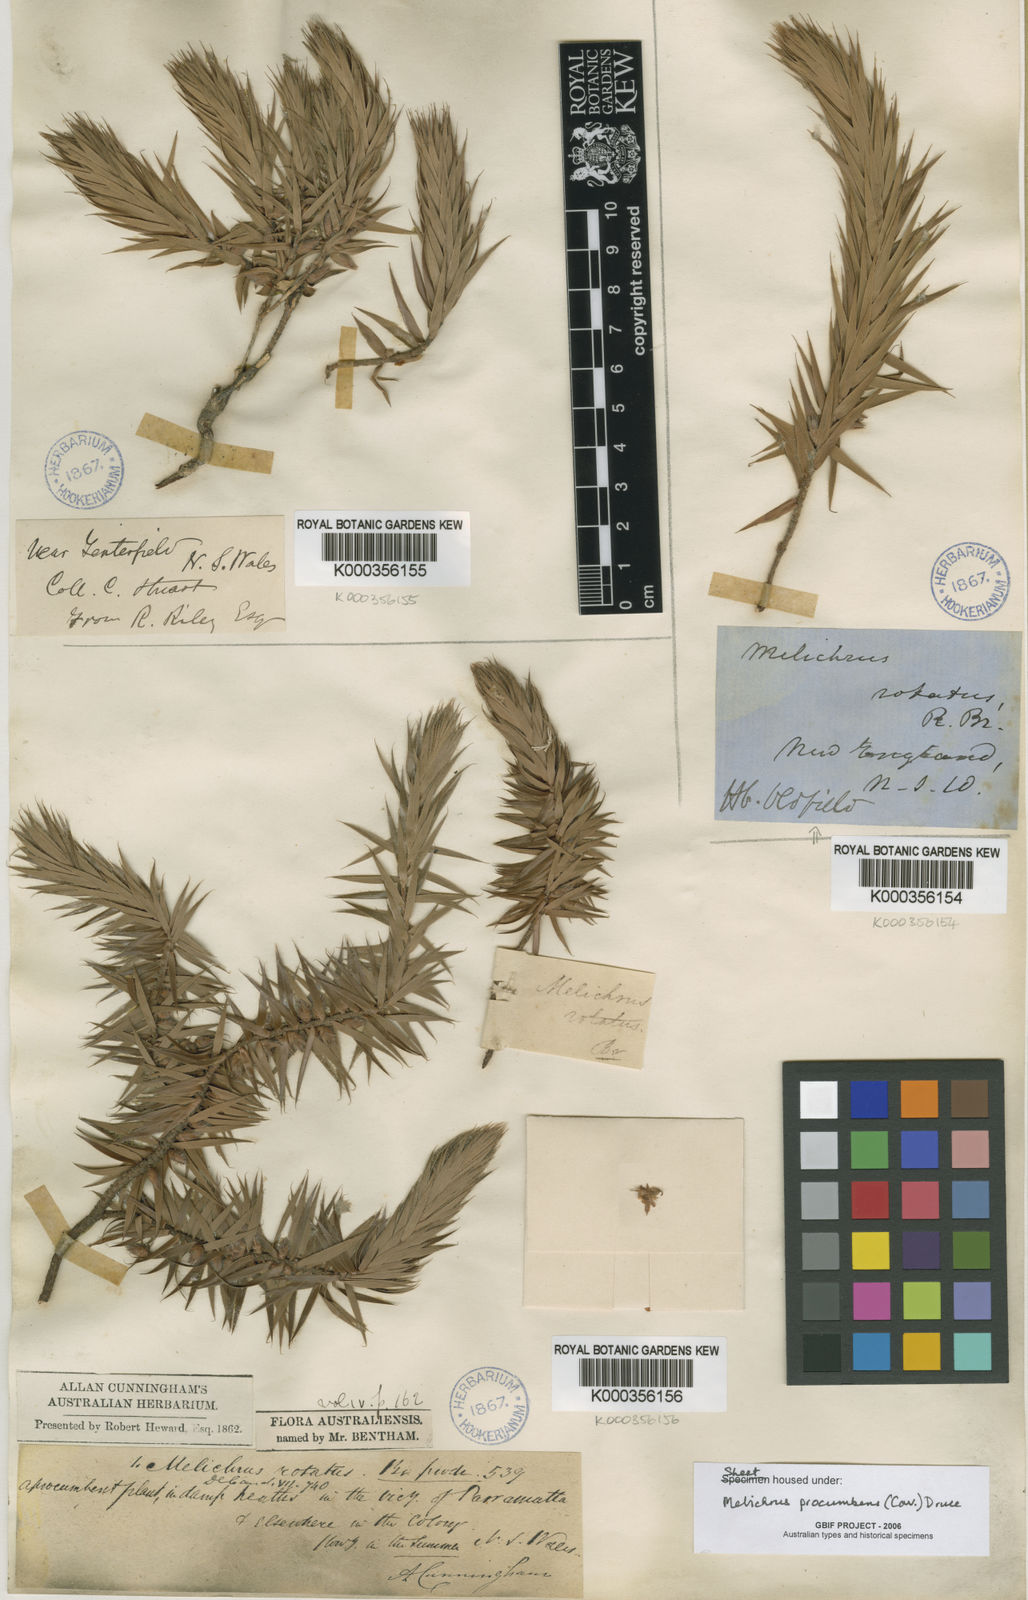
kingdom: Plantae
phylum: Tracheophyta
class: Magnoliopsida
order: Ericales
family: Ericaceae
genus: Melichrus
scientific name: Melichrus procumbens
